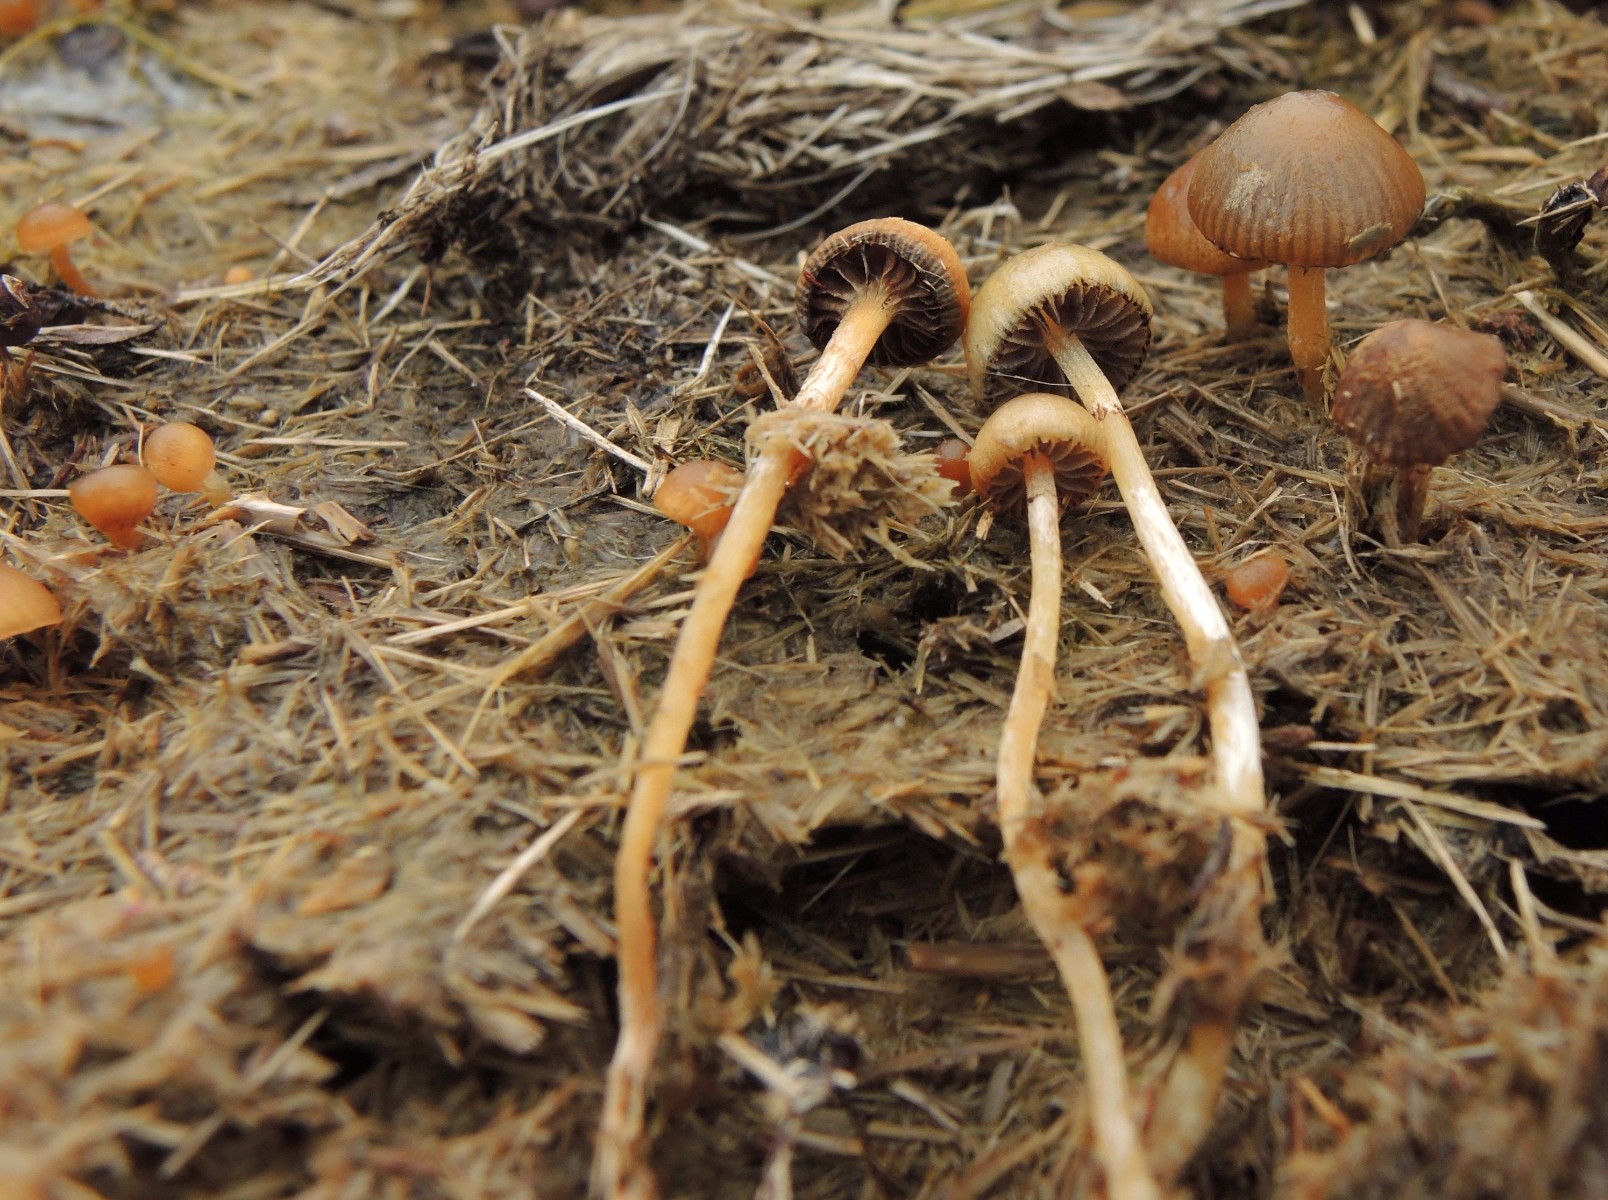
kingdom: Fungi
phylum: Basidiomycota
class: Agaricomycetes
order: Agaricales
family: Hymenogastraceae
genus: Psilocybe
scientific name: Psilocybe subcoprophila
